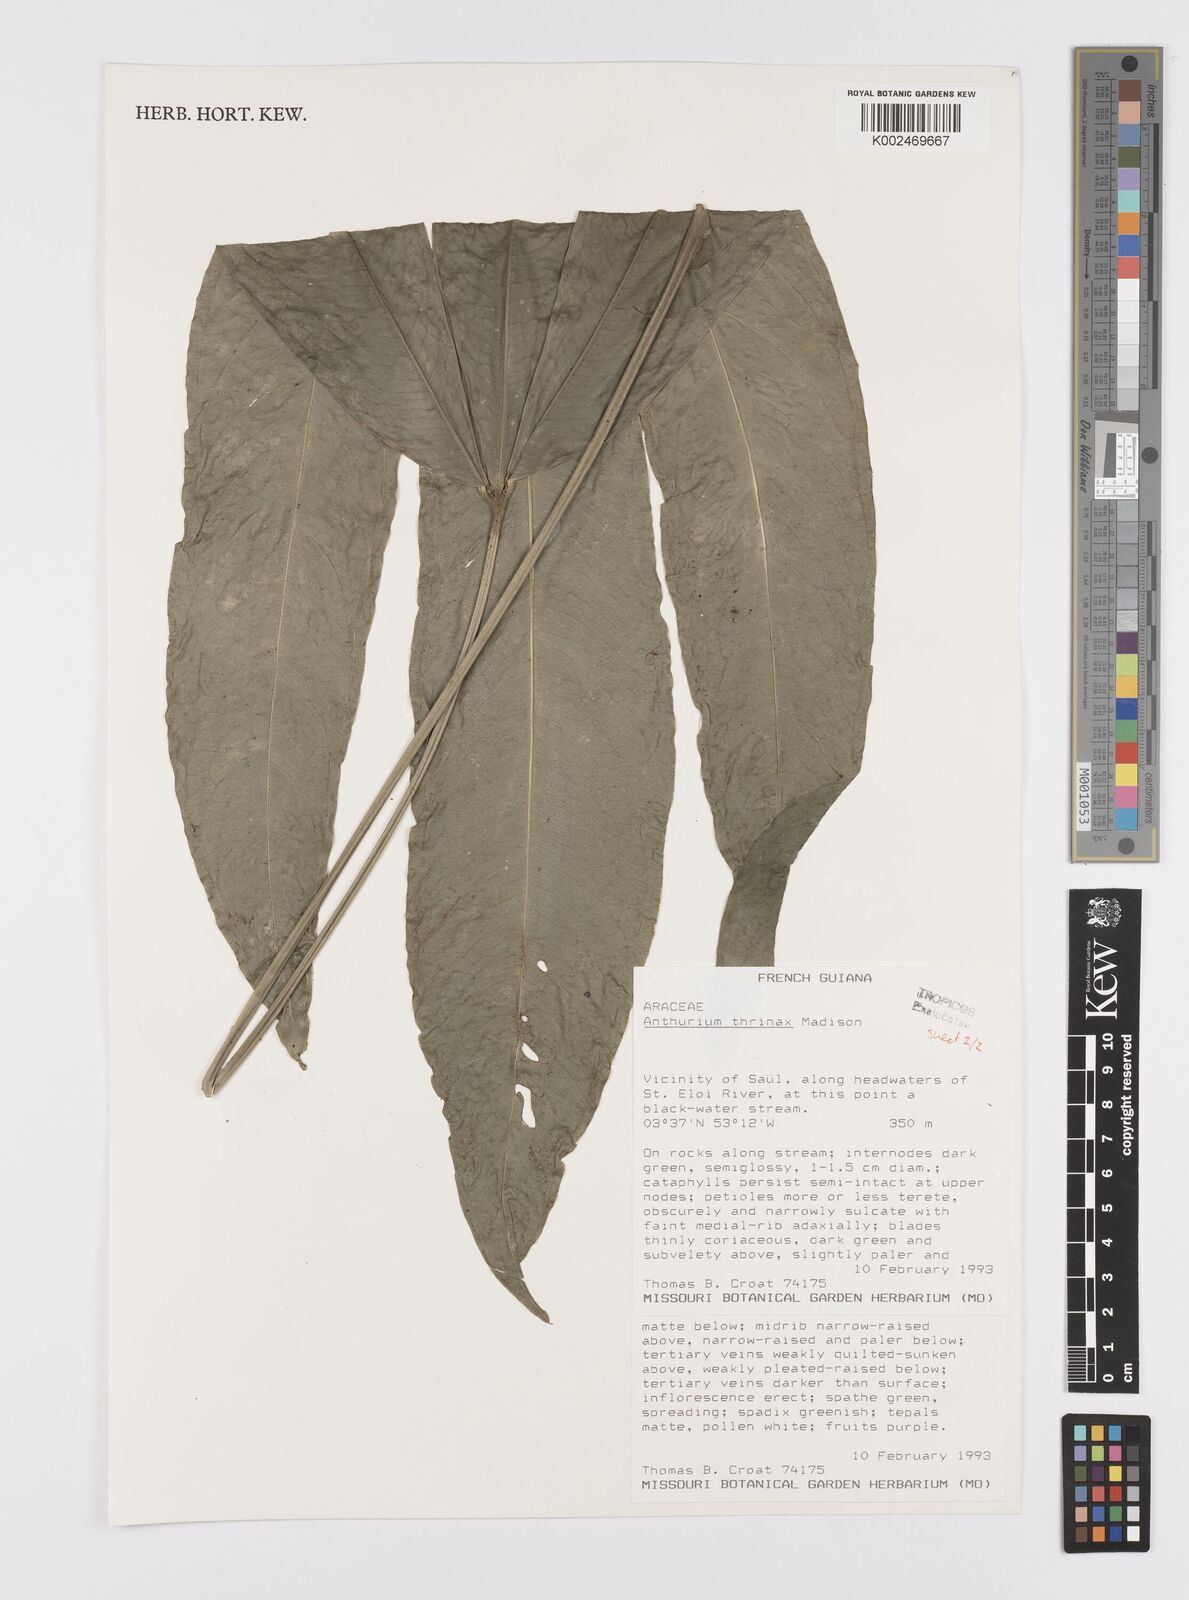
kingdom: Plantae
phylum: Tracheophyta
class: Liliopsida
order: Alismatales
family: Araceae
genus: Anthurium
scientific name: Anthurium thrinax
